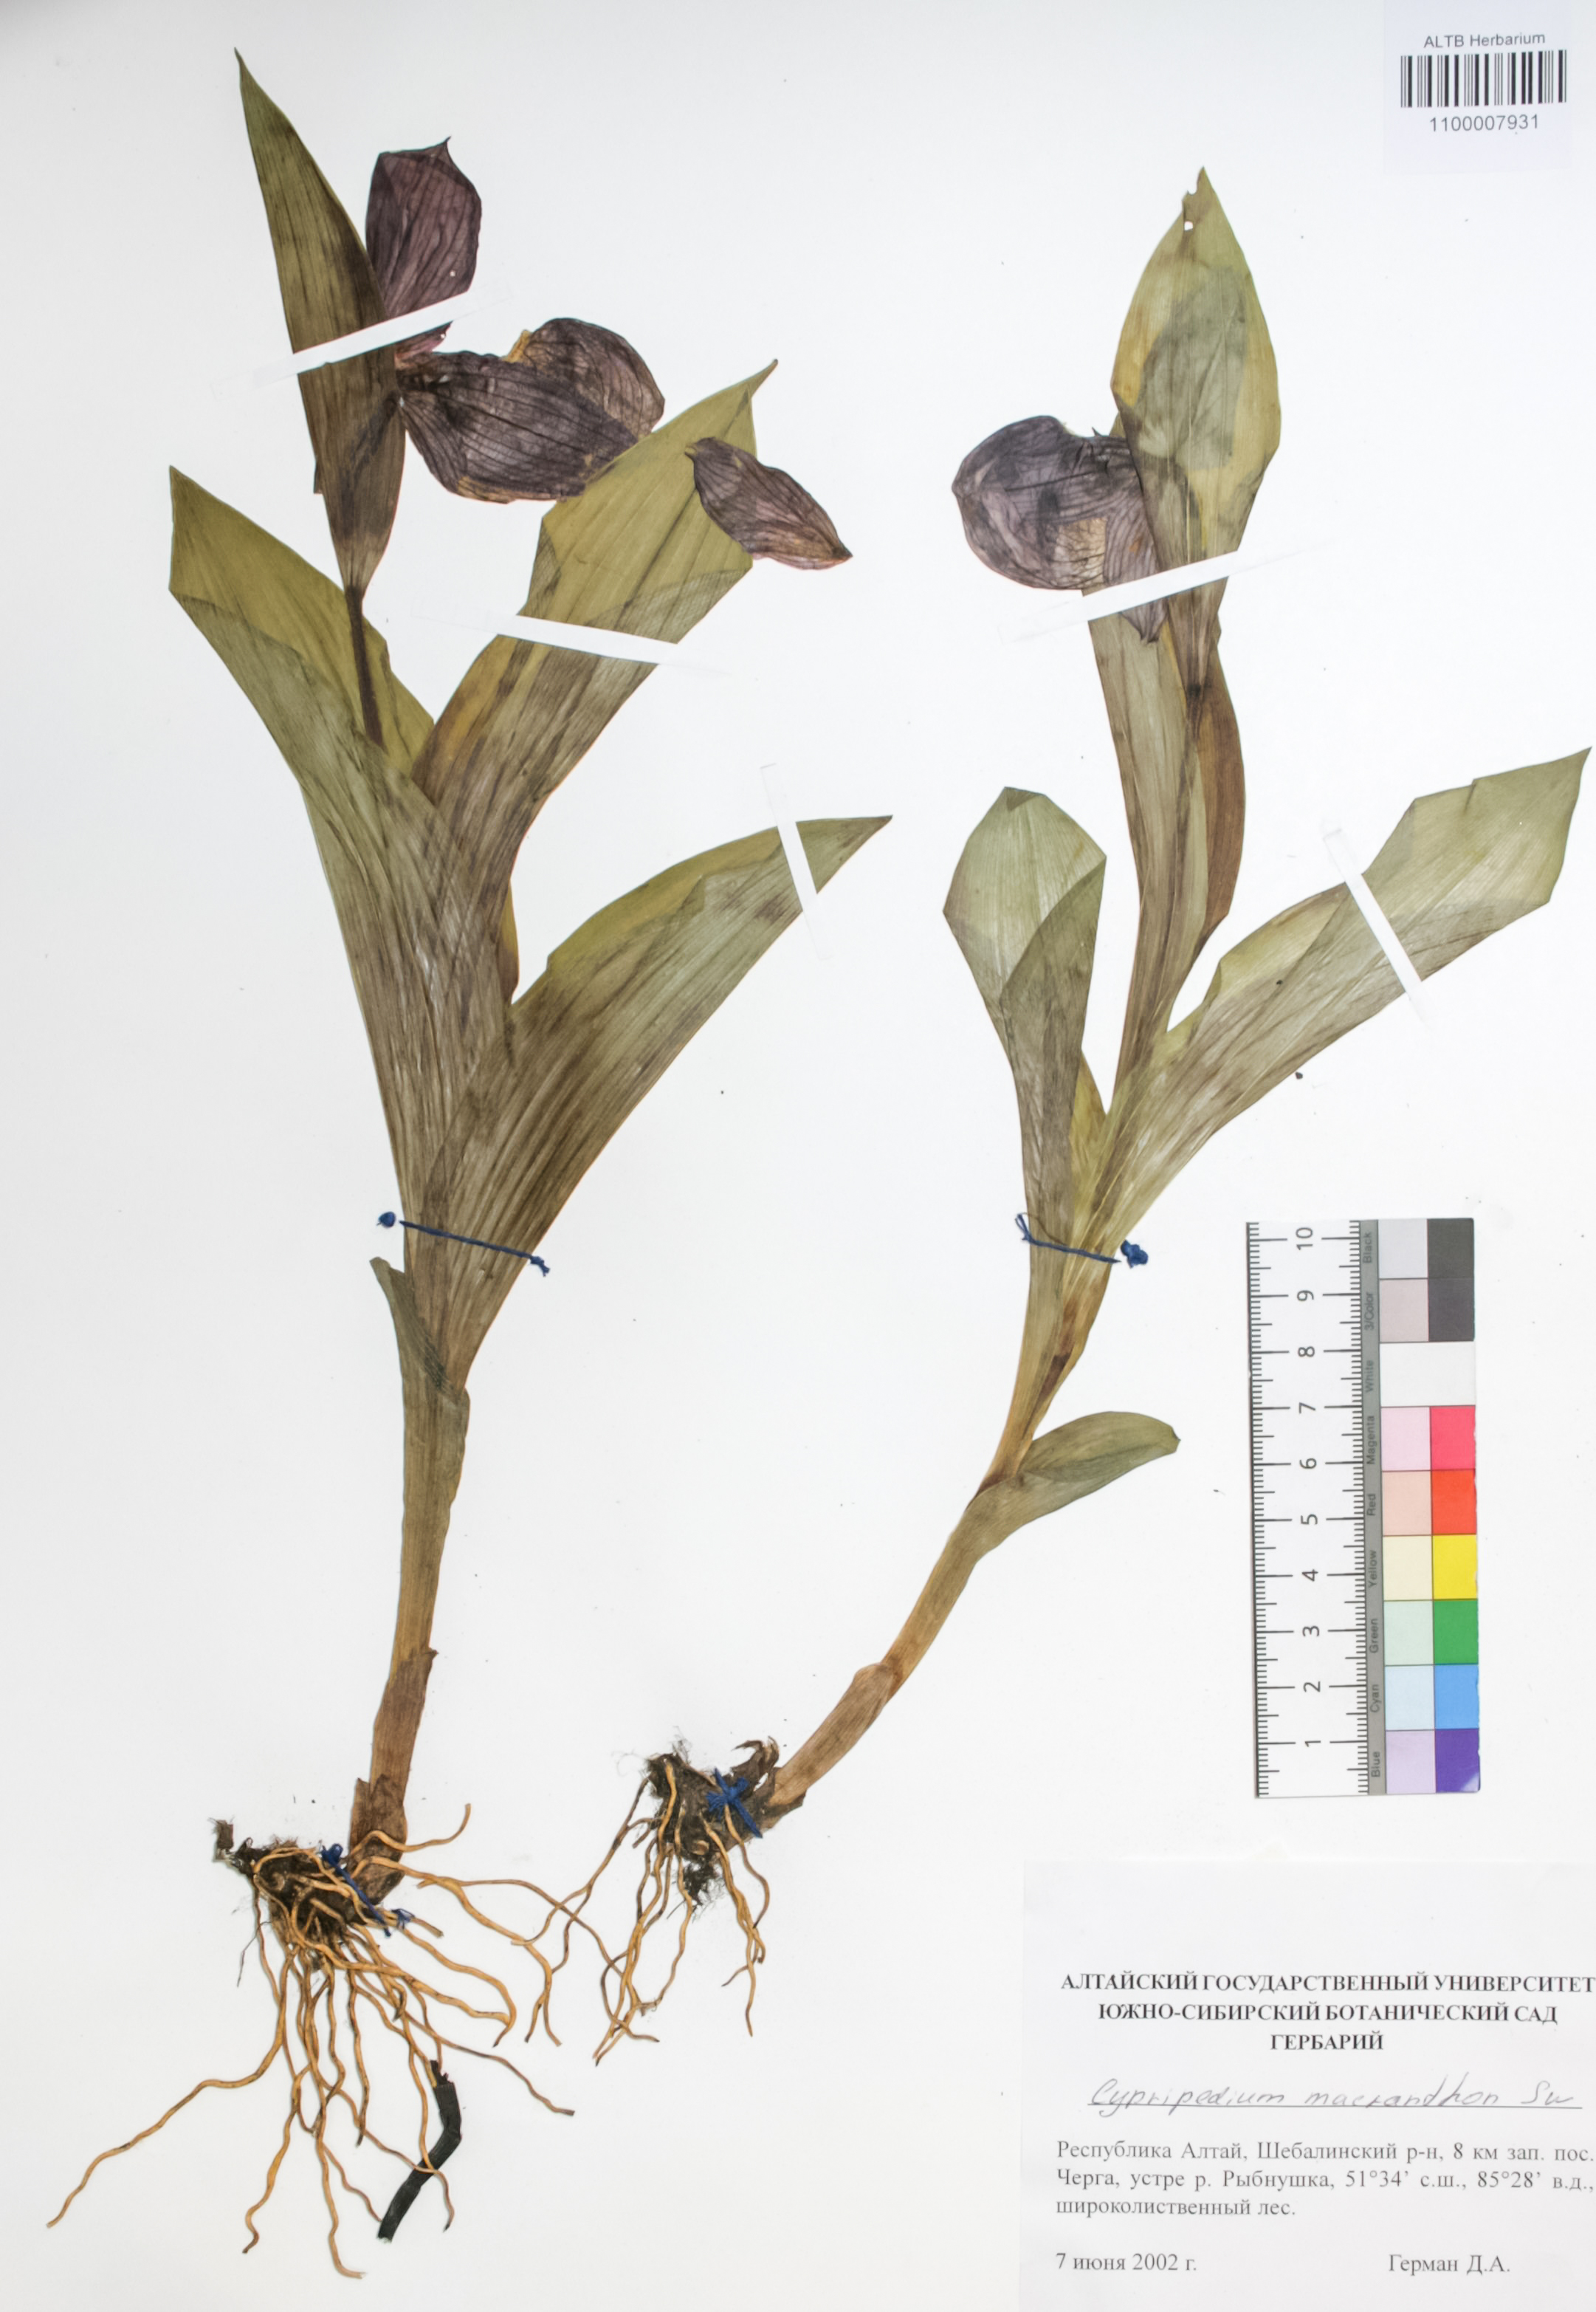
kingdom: Plantae
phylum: Tracheophyta
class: Liliopsida
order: Asparagales
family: Orchidaceae
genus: Cypripedium
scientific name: Cypripedium macranthon
